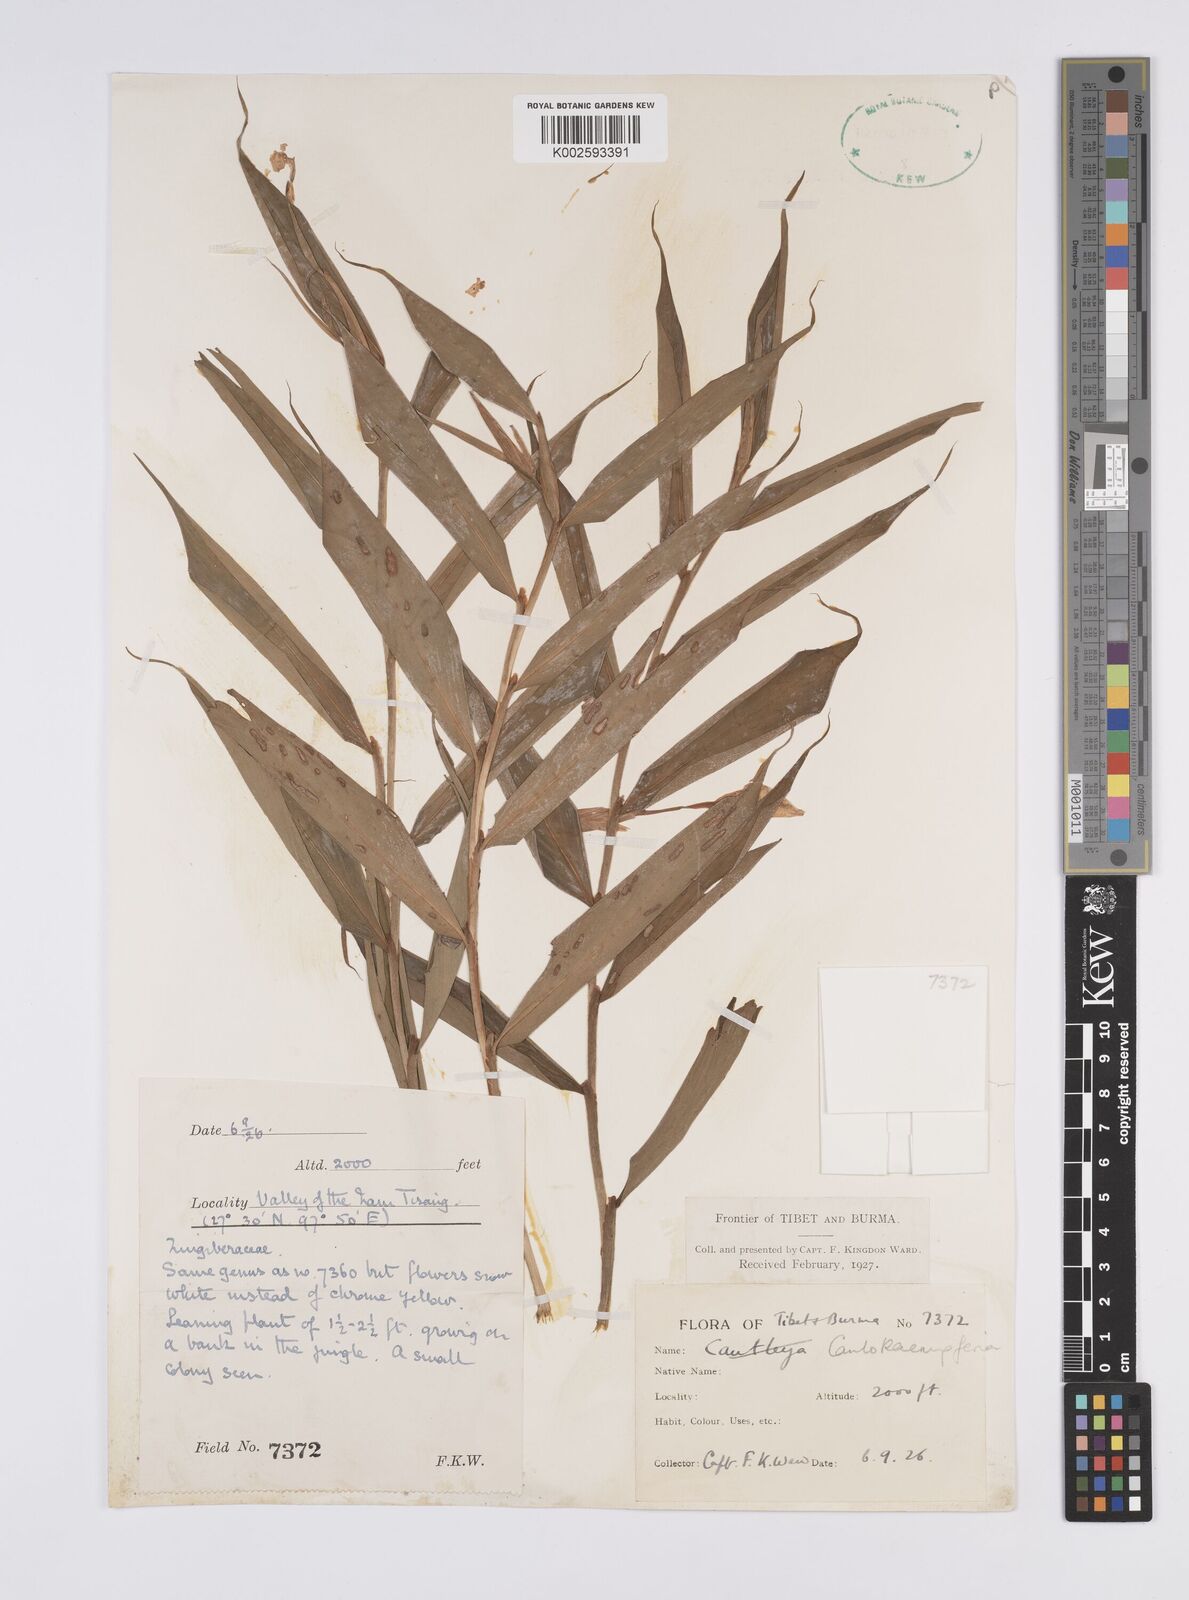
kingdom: Plantae
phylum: Tracheophyta
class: Liliopsida
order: Zingiberales
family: Zingiberaceae
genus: Caulokaempferia
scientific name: Caulokaempferia
